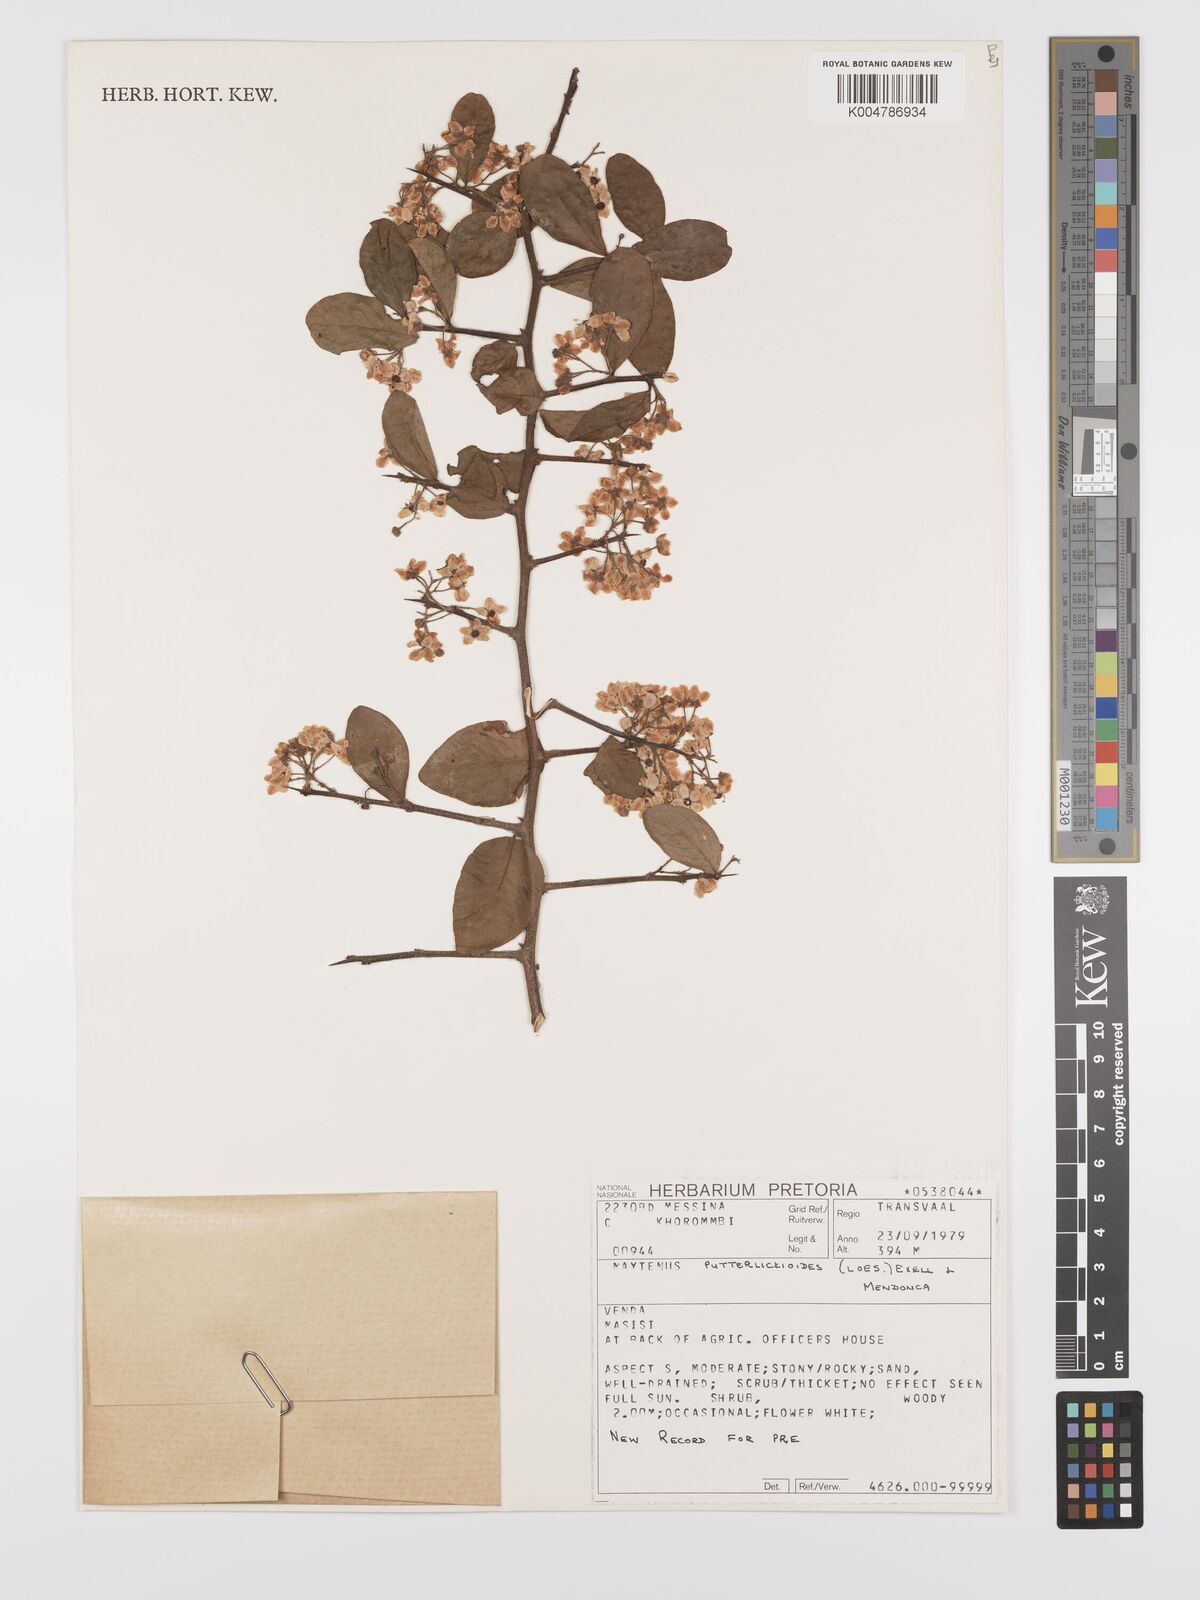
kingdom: Plantae
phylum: Tracheophyta
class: Magnoliopsida
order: Celastrales
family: Celastraceae
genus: Gymnosporia
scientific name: Gymnosporia putterlickioides
